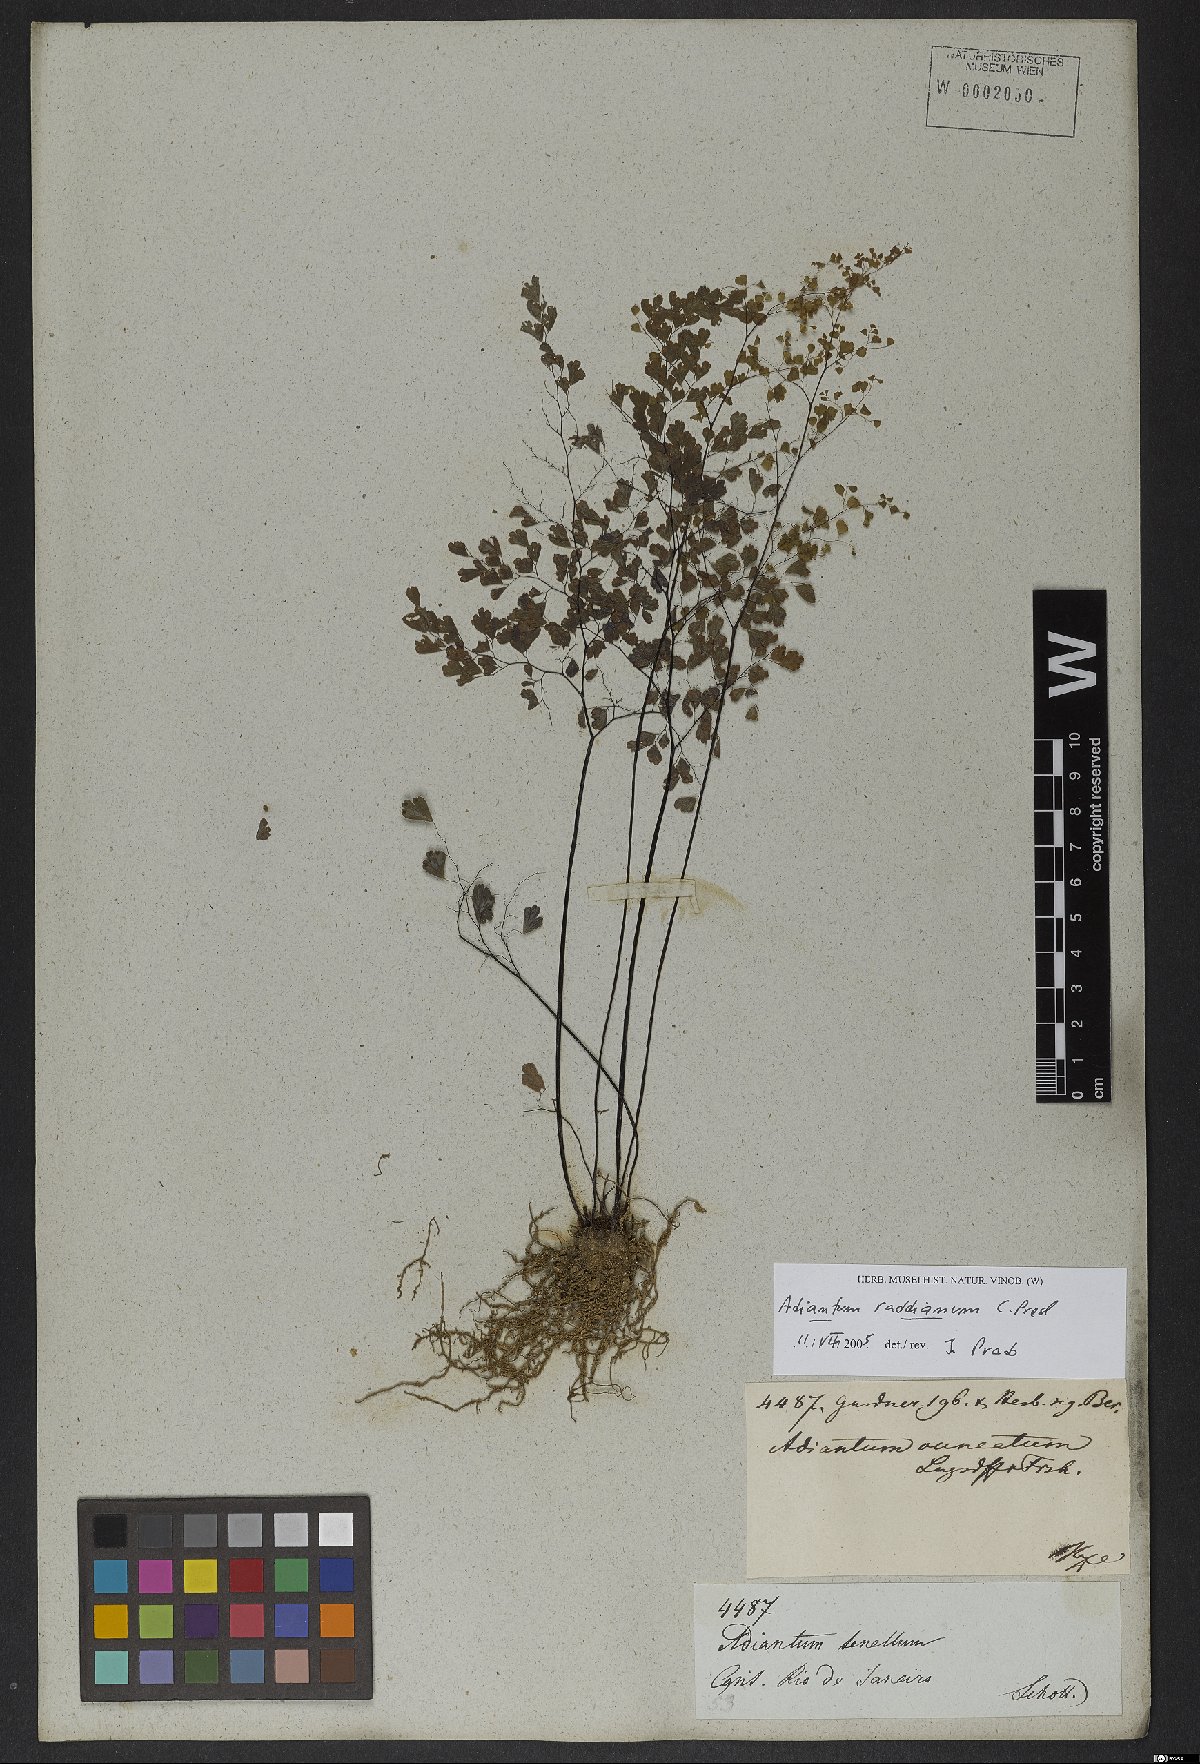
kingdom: Plantae
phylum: Tracheophyta
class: Polypodiopsida
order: Polypodiales
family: Pteridaceae
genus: Adiantum
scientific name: Adiantum raddianum
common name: Delta maidenhair fern
